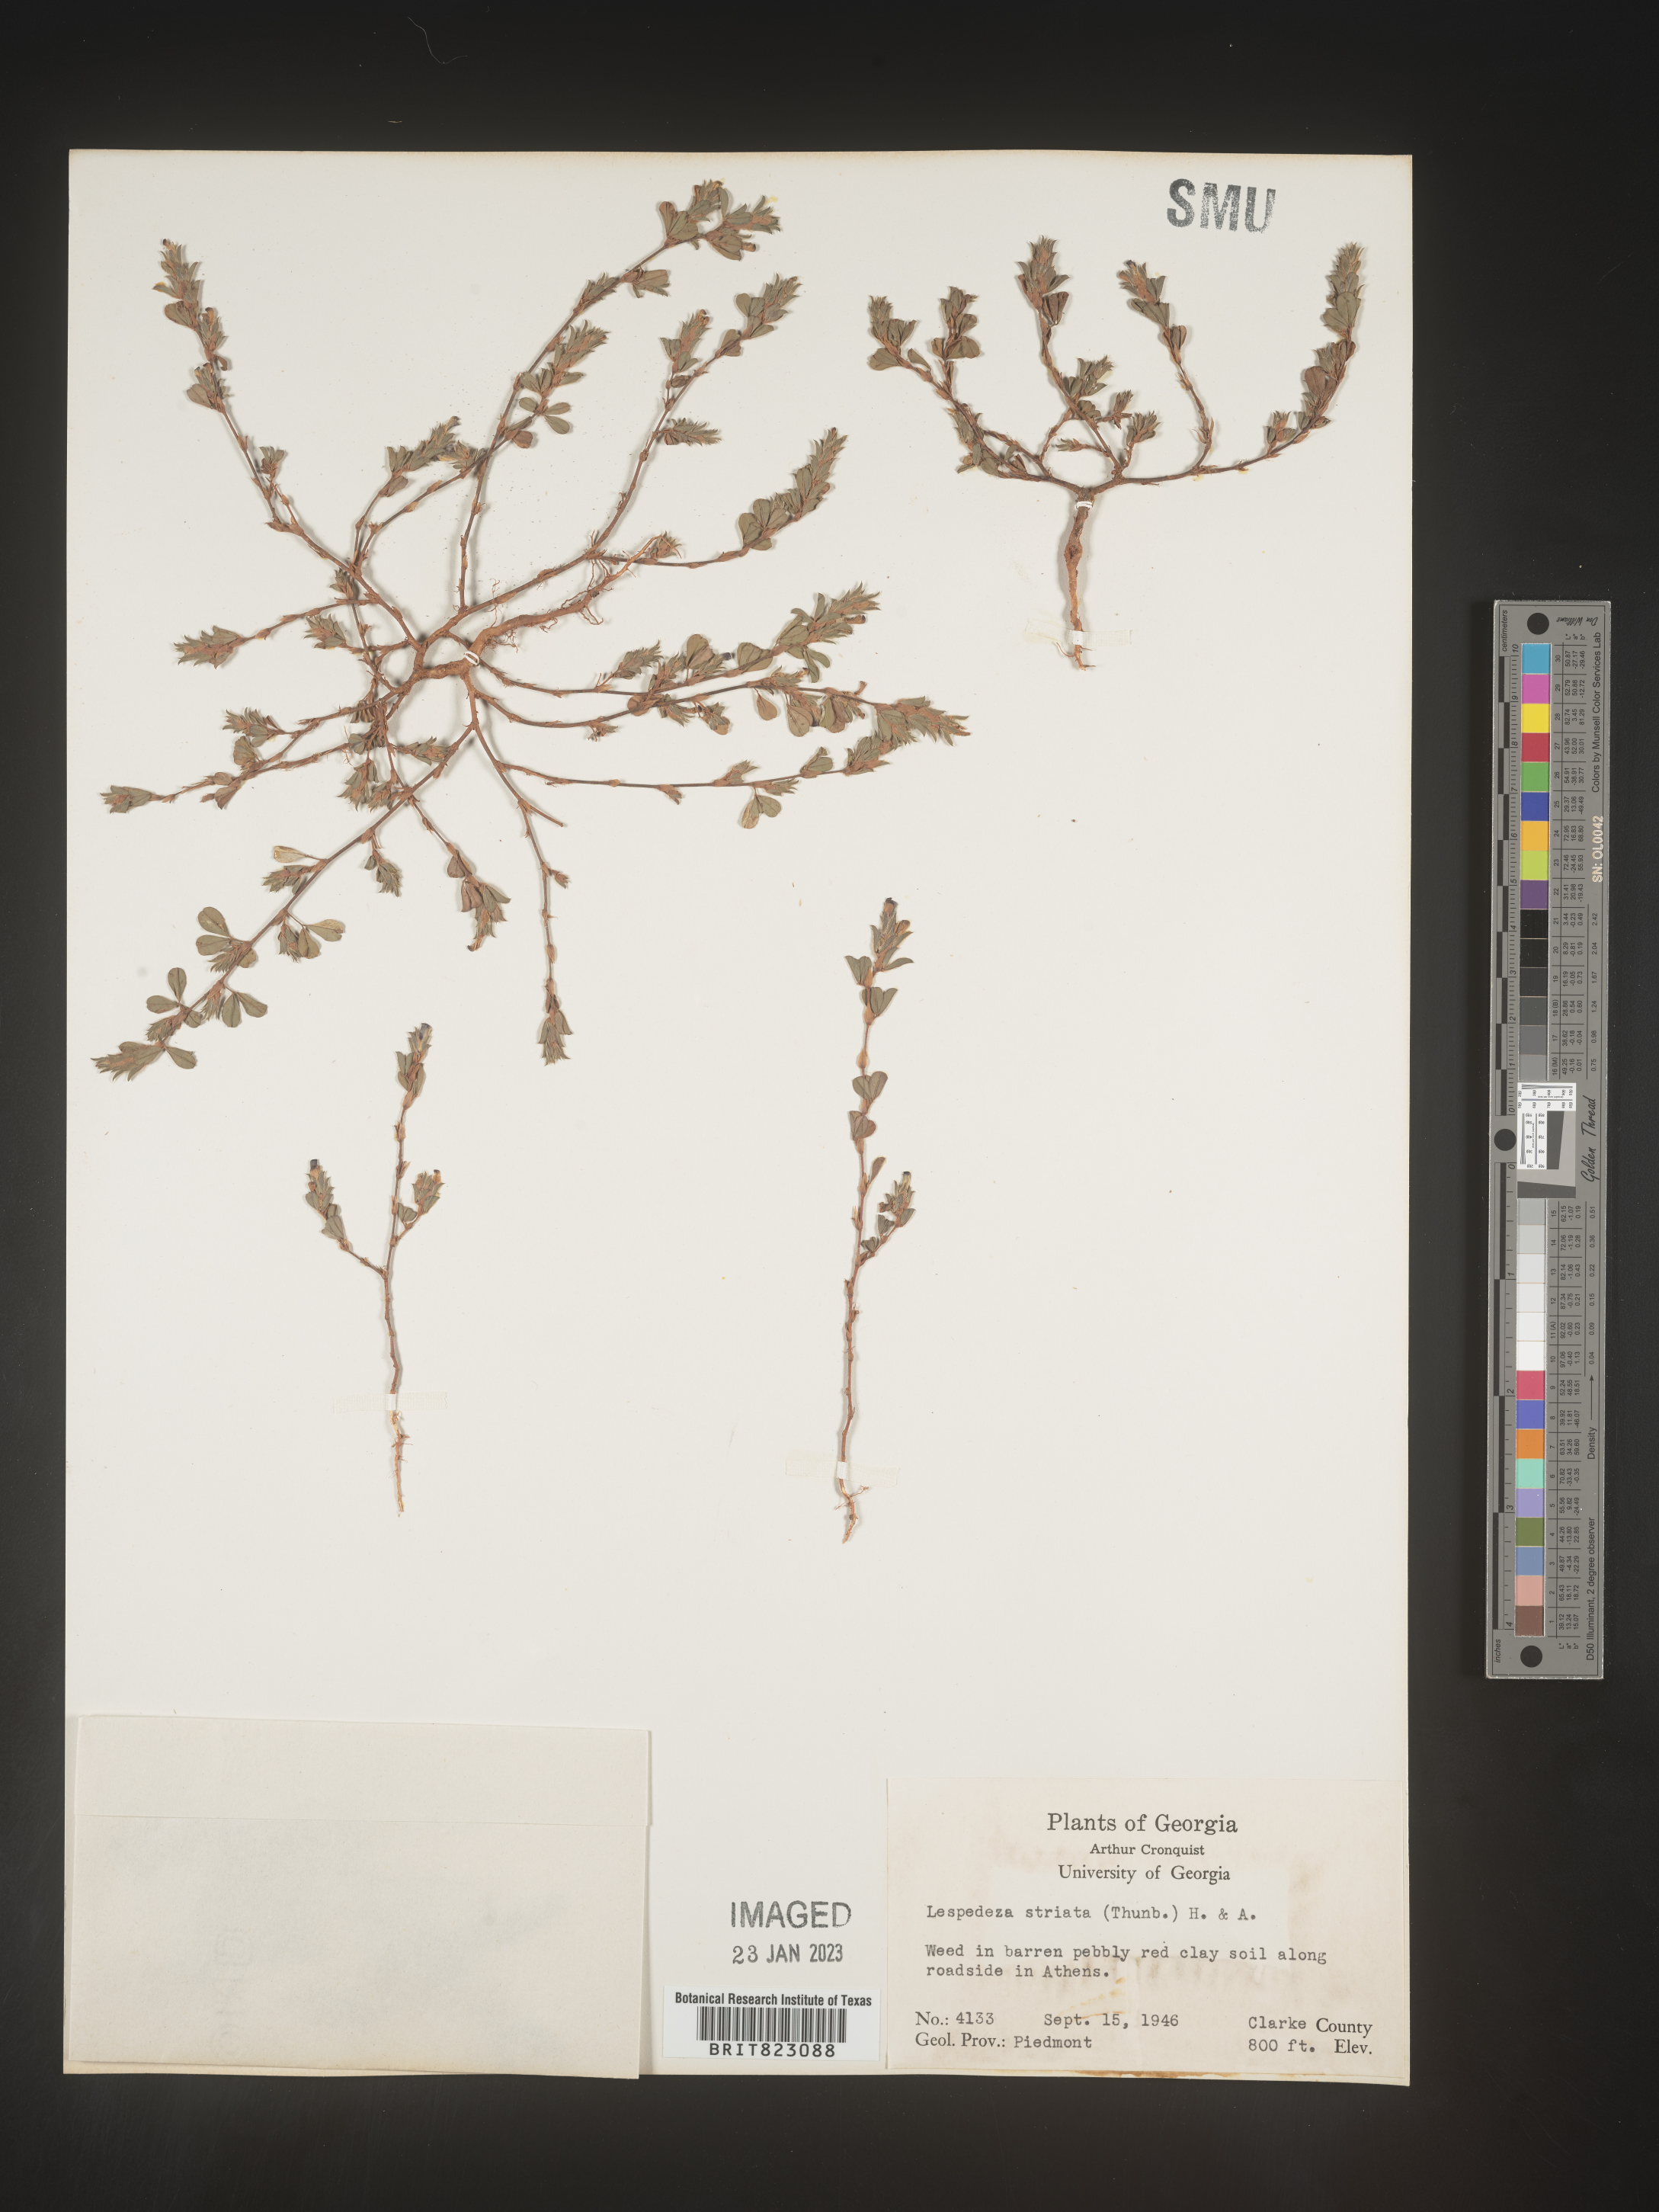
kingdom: Plantae
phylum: Tracheophyta
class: Magnoliopsida
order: Fabales
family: Fabaceae
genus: Kummerowia
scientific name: Kummerowia striata
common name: Japanese clover
